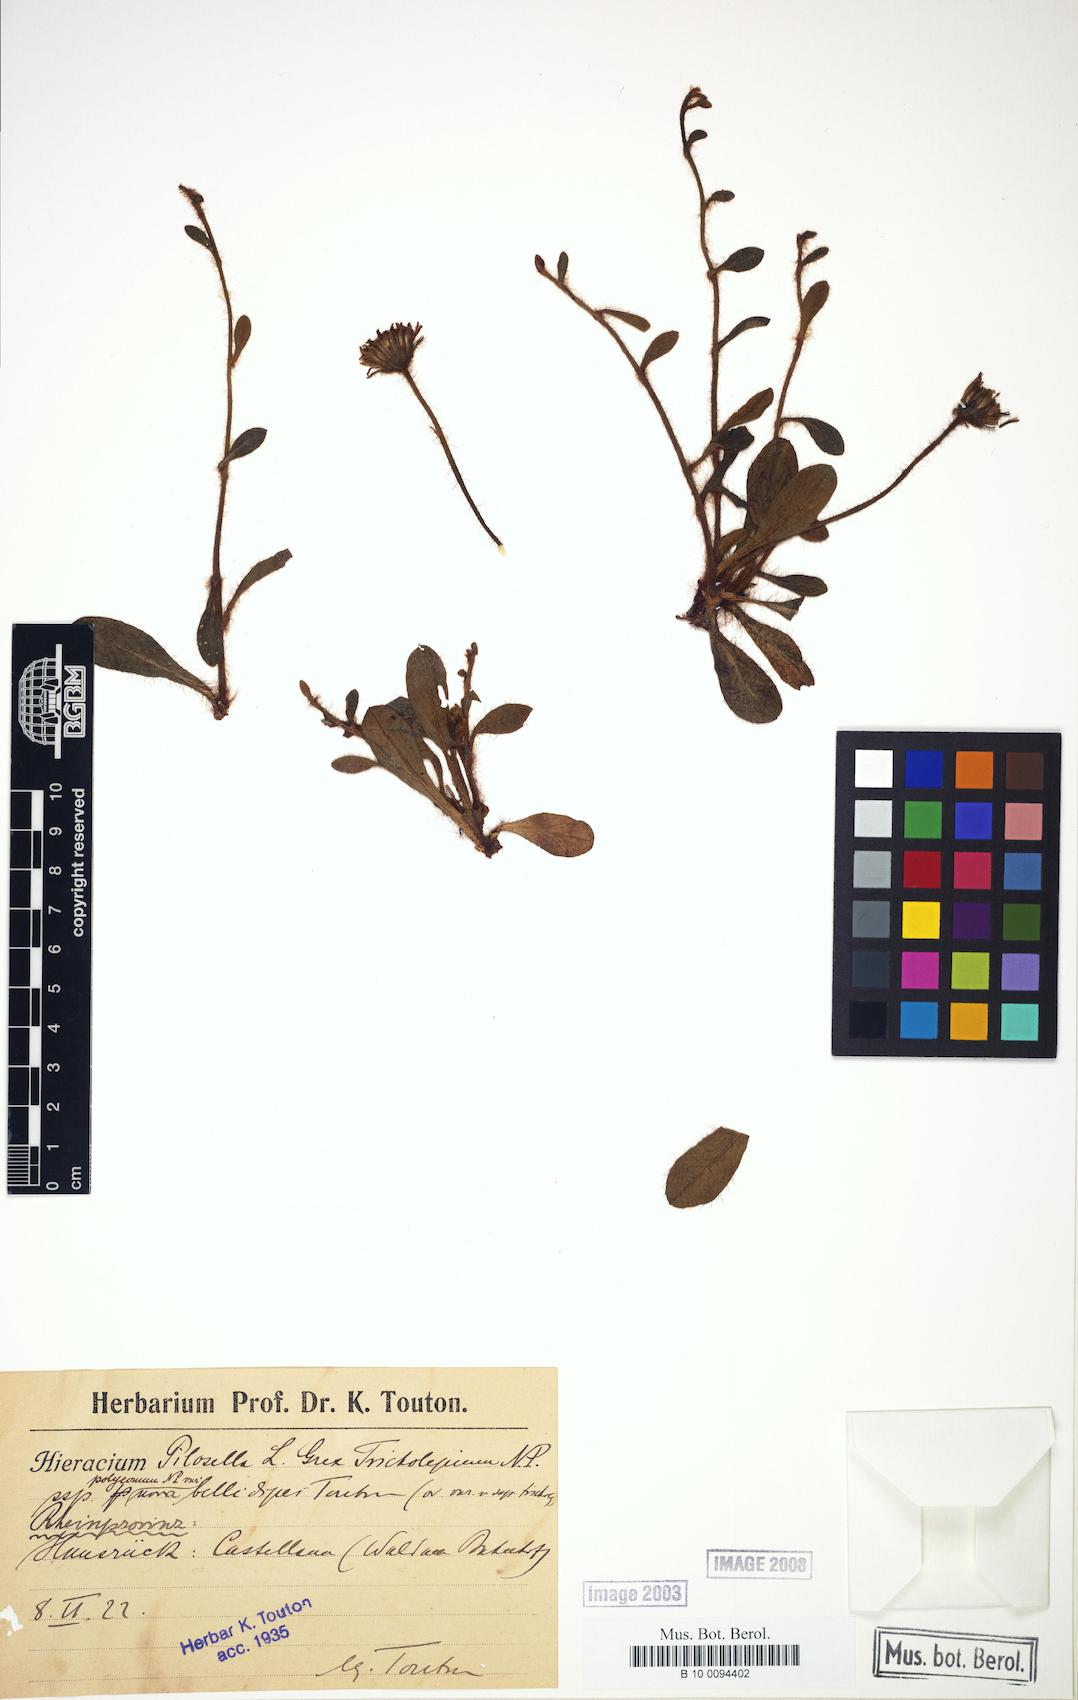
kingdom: Plantae
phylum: Tracheophyta
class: Magnoliopsida
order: Asterales
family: Asteraceae
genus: Pilosella
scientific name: Pilosella officinarum
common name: Mouse-ear hawkweed
